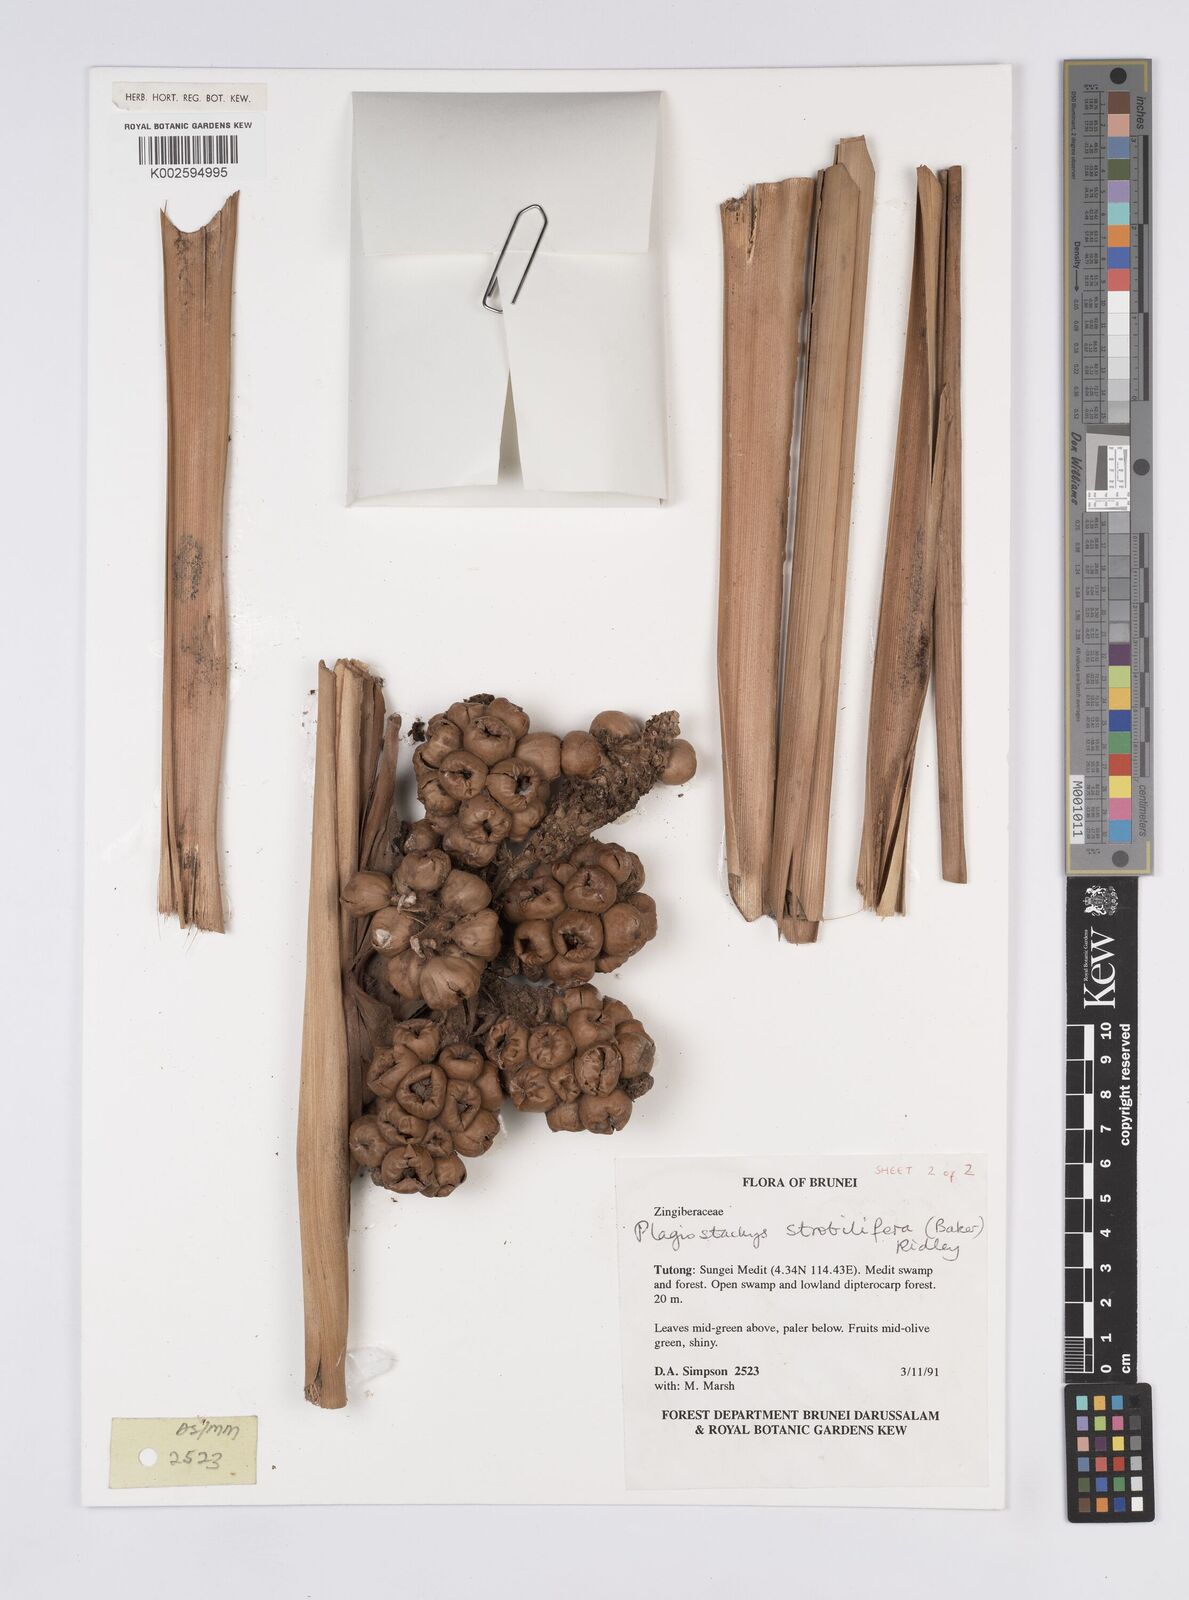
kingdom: Plantae
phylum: Tracheophyta
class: Liliopsida
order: Zingiberales
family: Zingiberaceae
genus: Plagiostachys
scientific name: Plagiostachys strobilifera
